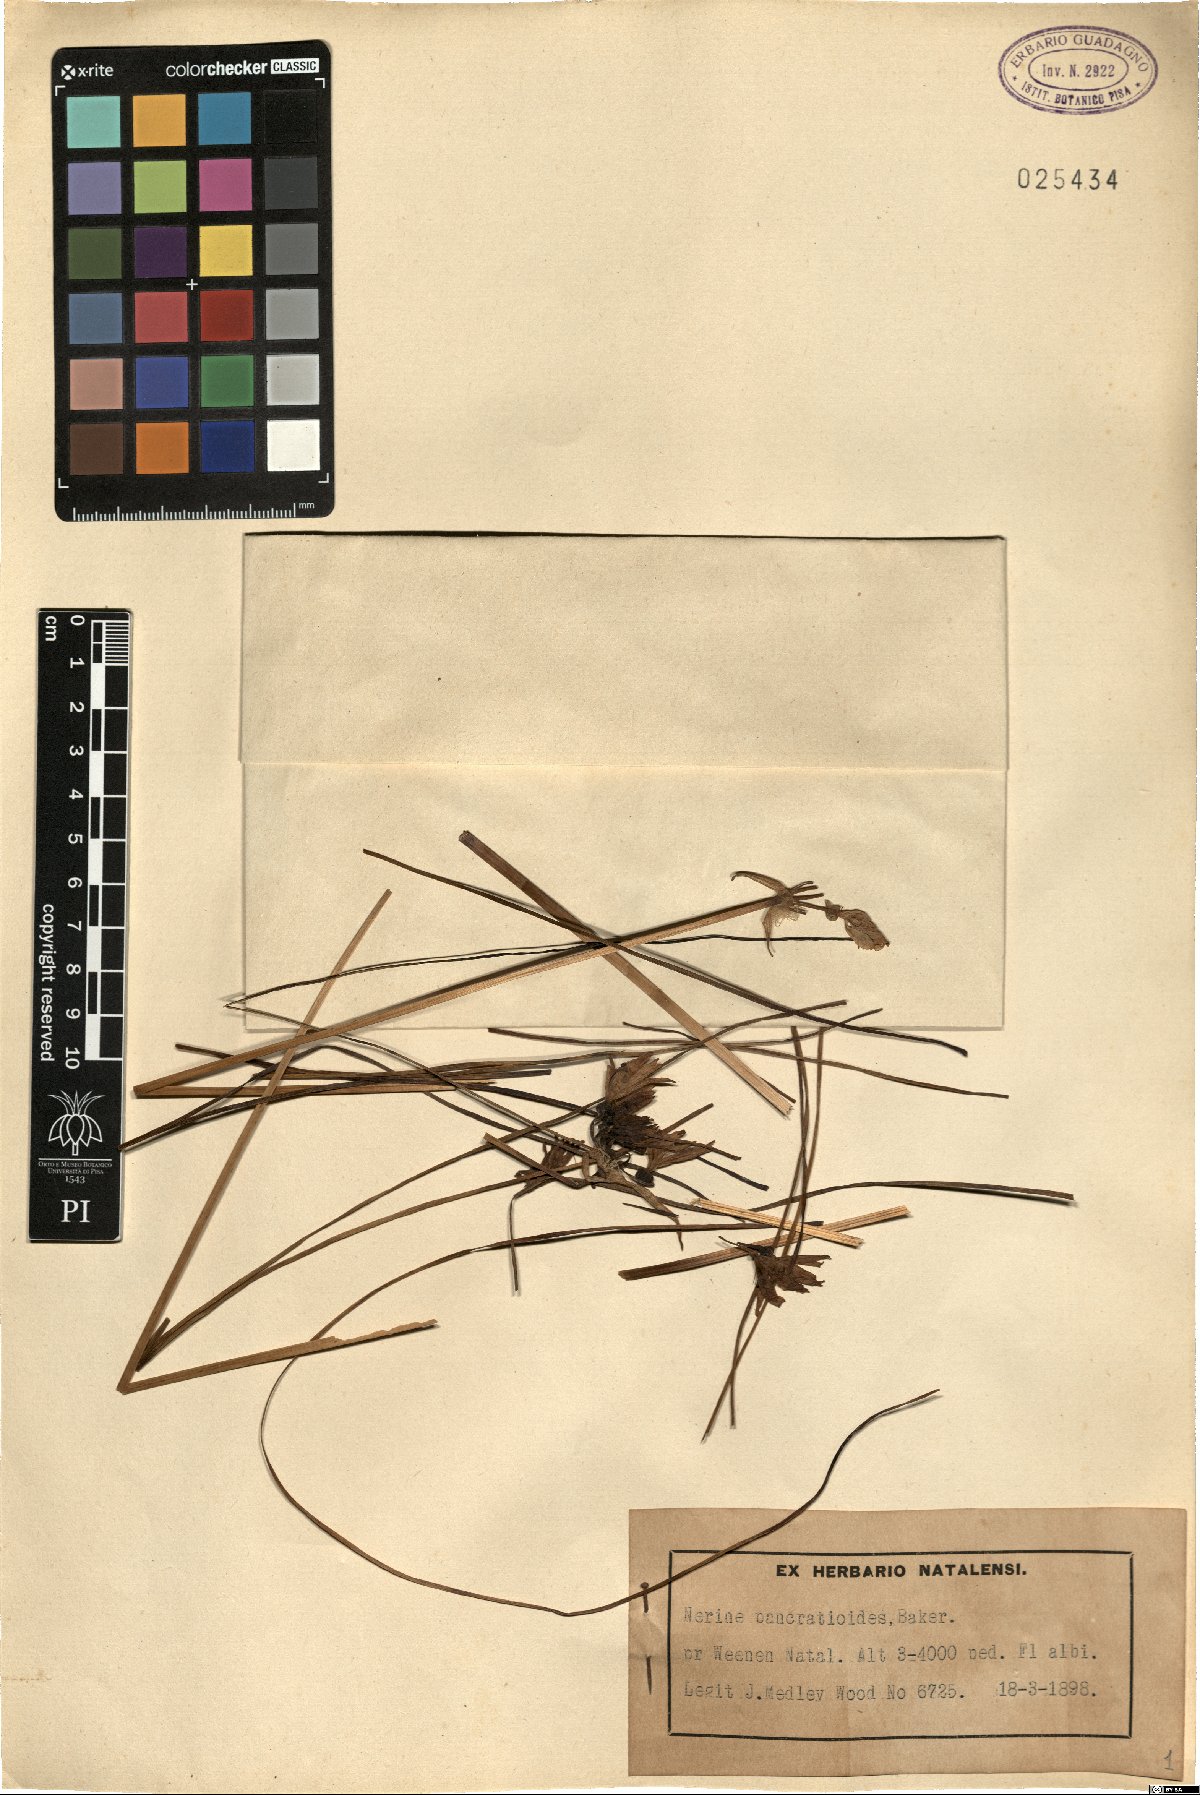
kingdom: Plantae
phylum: Tracheophyta
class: Liliopsida
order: Asparagales
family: Amaryllidaceae
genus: Nerine
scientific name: Nerine pancratioides
